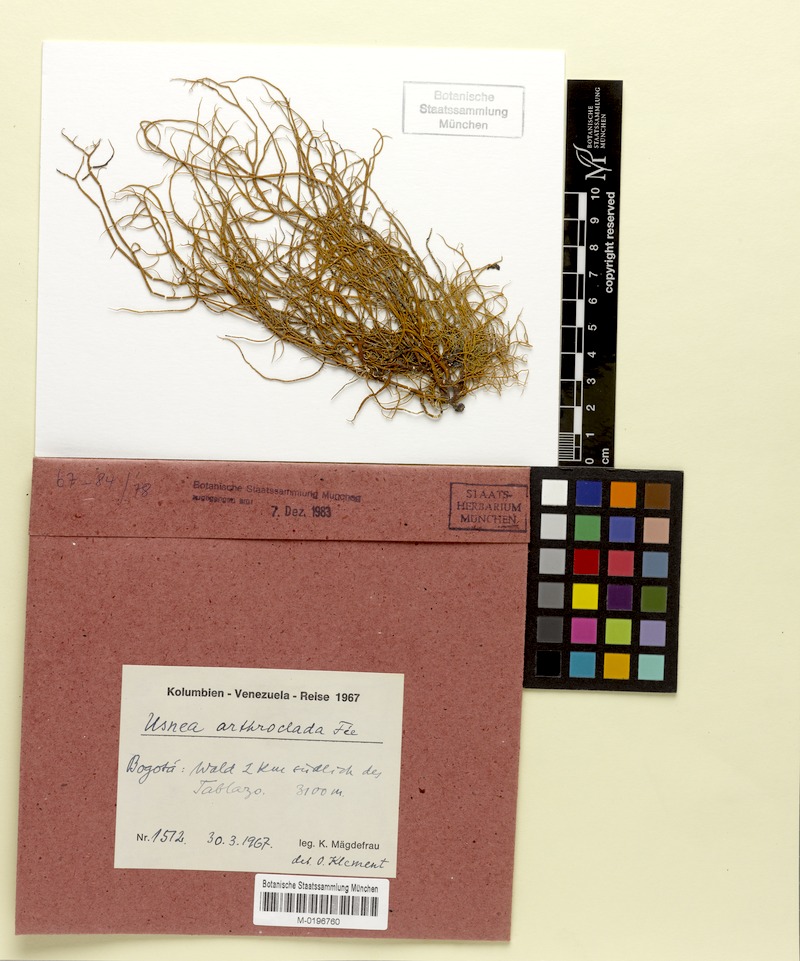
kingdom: Fungi
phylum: Ascomycota
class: Lecanoromycetes
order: Lecanorales
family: Parmeliaceae
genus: Usnea
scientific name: Usnea arthroclada
